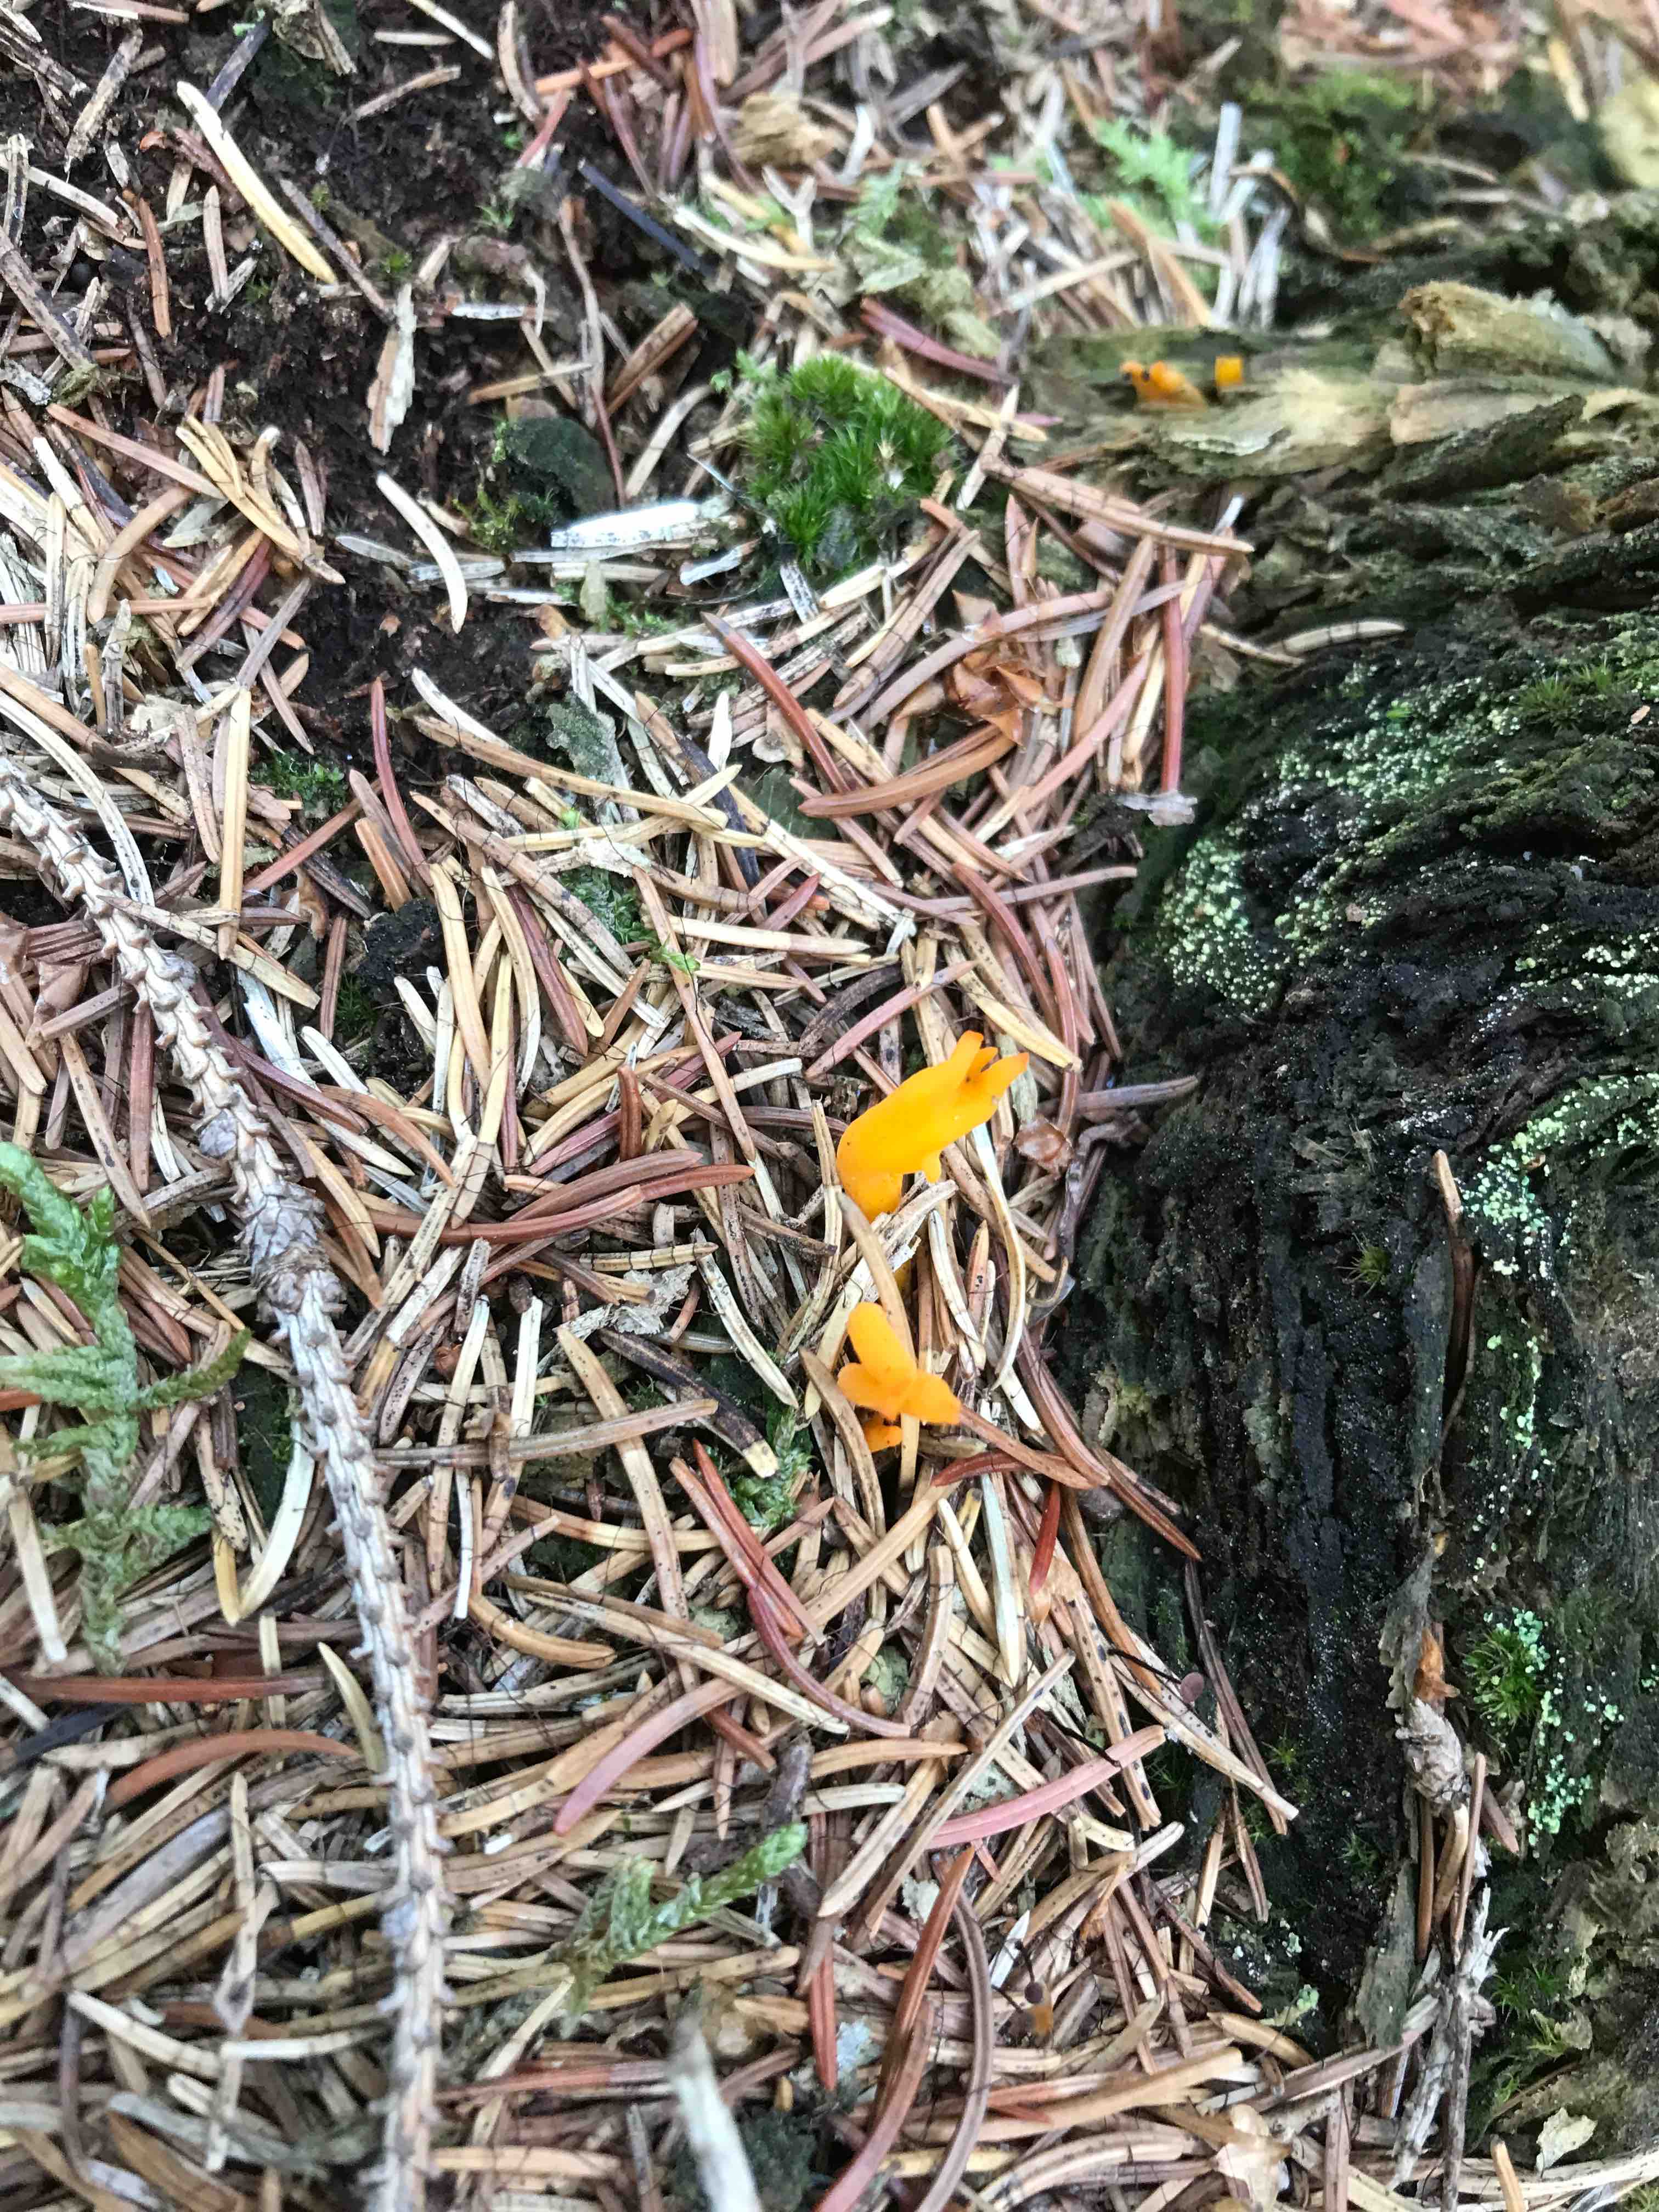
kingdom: Fungi
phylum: Basidiomycota
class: Dacrymycetes
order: Dacrymycetales
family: Dacrymycetaceae
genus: Calocera
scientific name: Calocera viscosa
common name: almindelig guldgaffel
